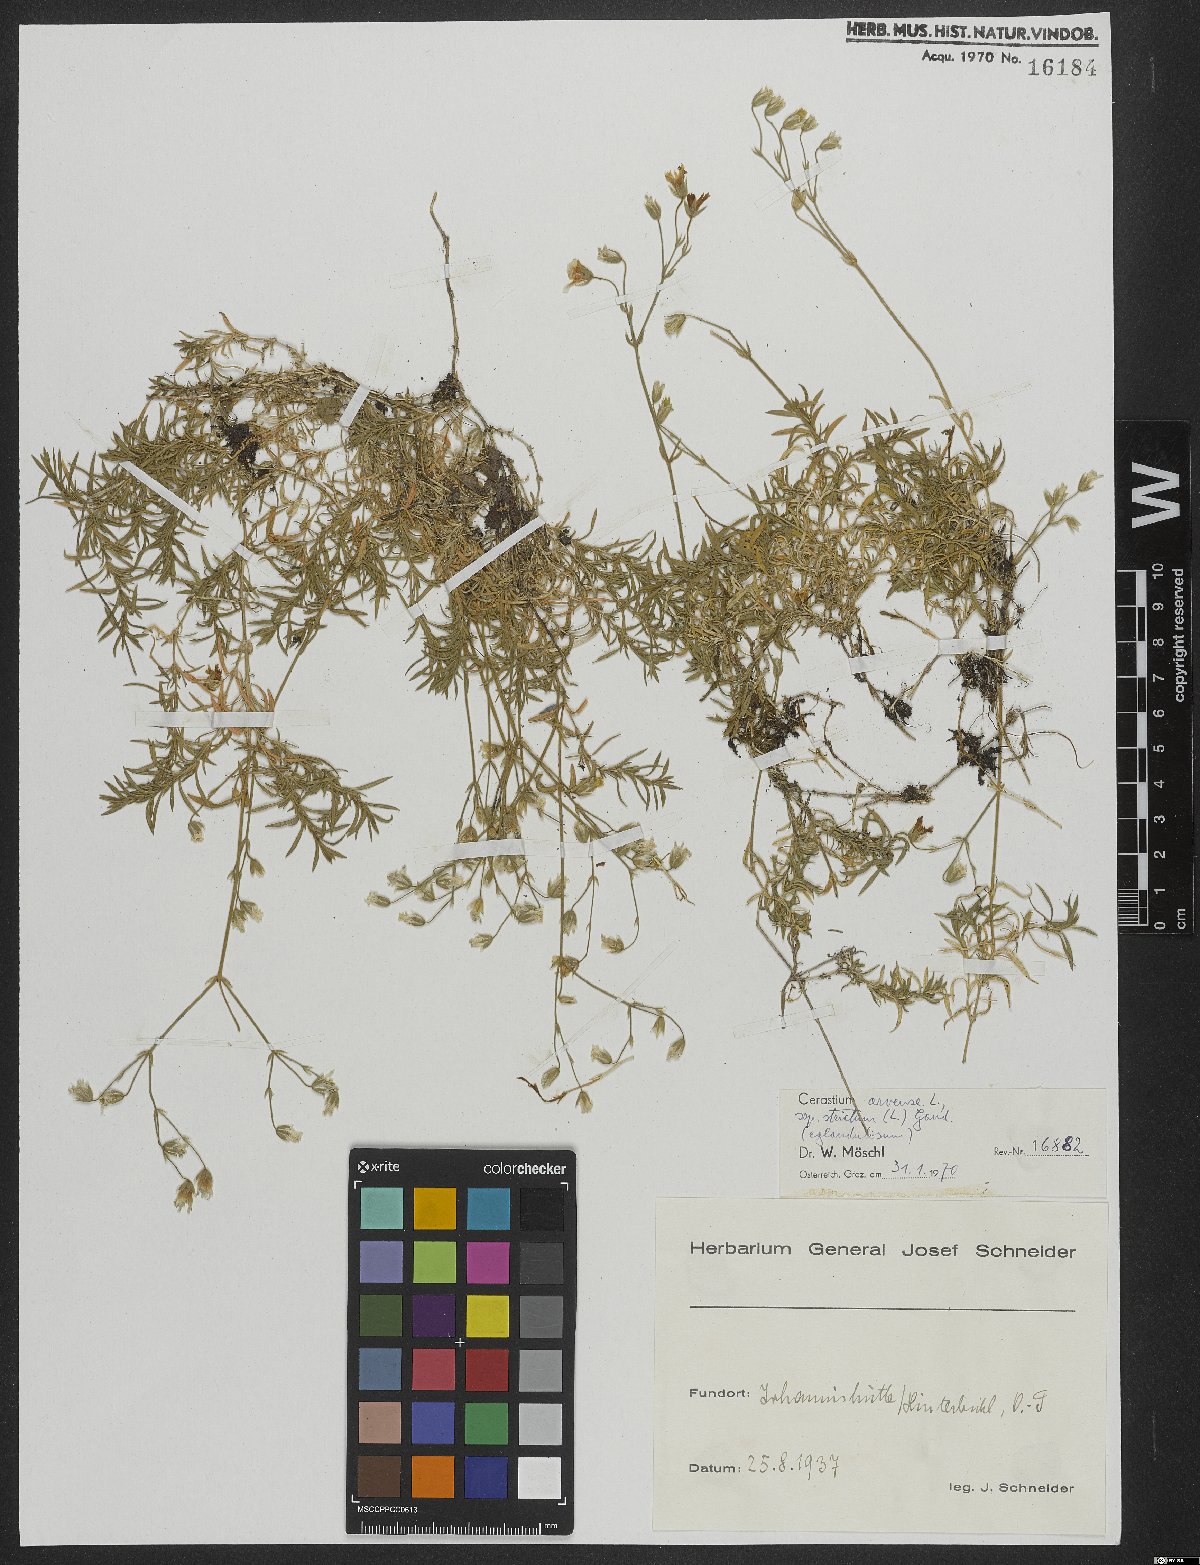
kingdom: Plantae
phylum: Tracheophyta
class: Magnoliopsida
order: Caryophyllales
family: Caryophyllaceae
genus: Cerastium
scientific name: Cerastium elongatum
